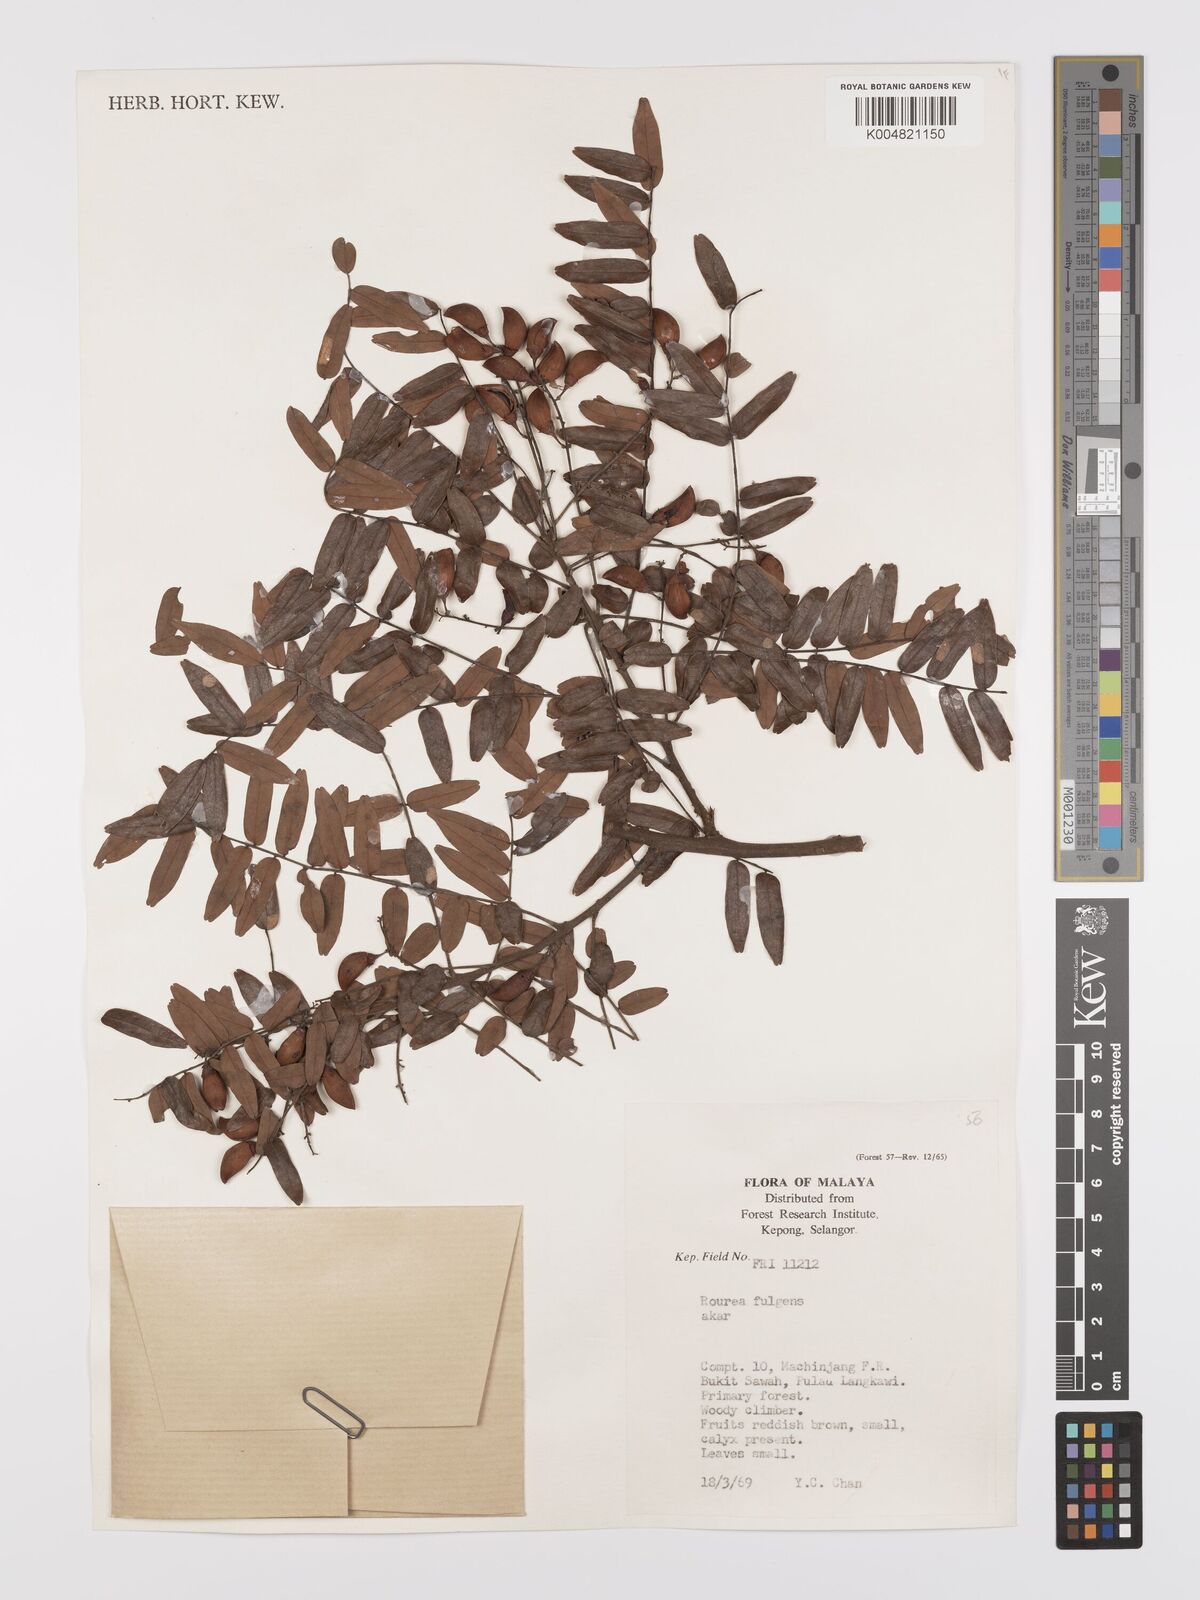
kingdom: Plantae
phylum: Tracheophyta
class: Magnoliopsida
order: Oxalidales
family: Connaraceae
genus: Rourea
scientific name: Rourea fulgens
